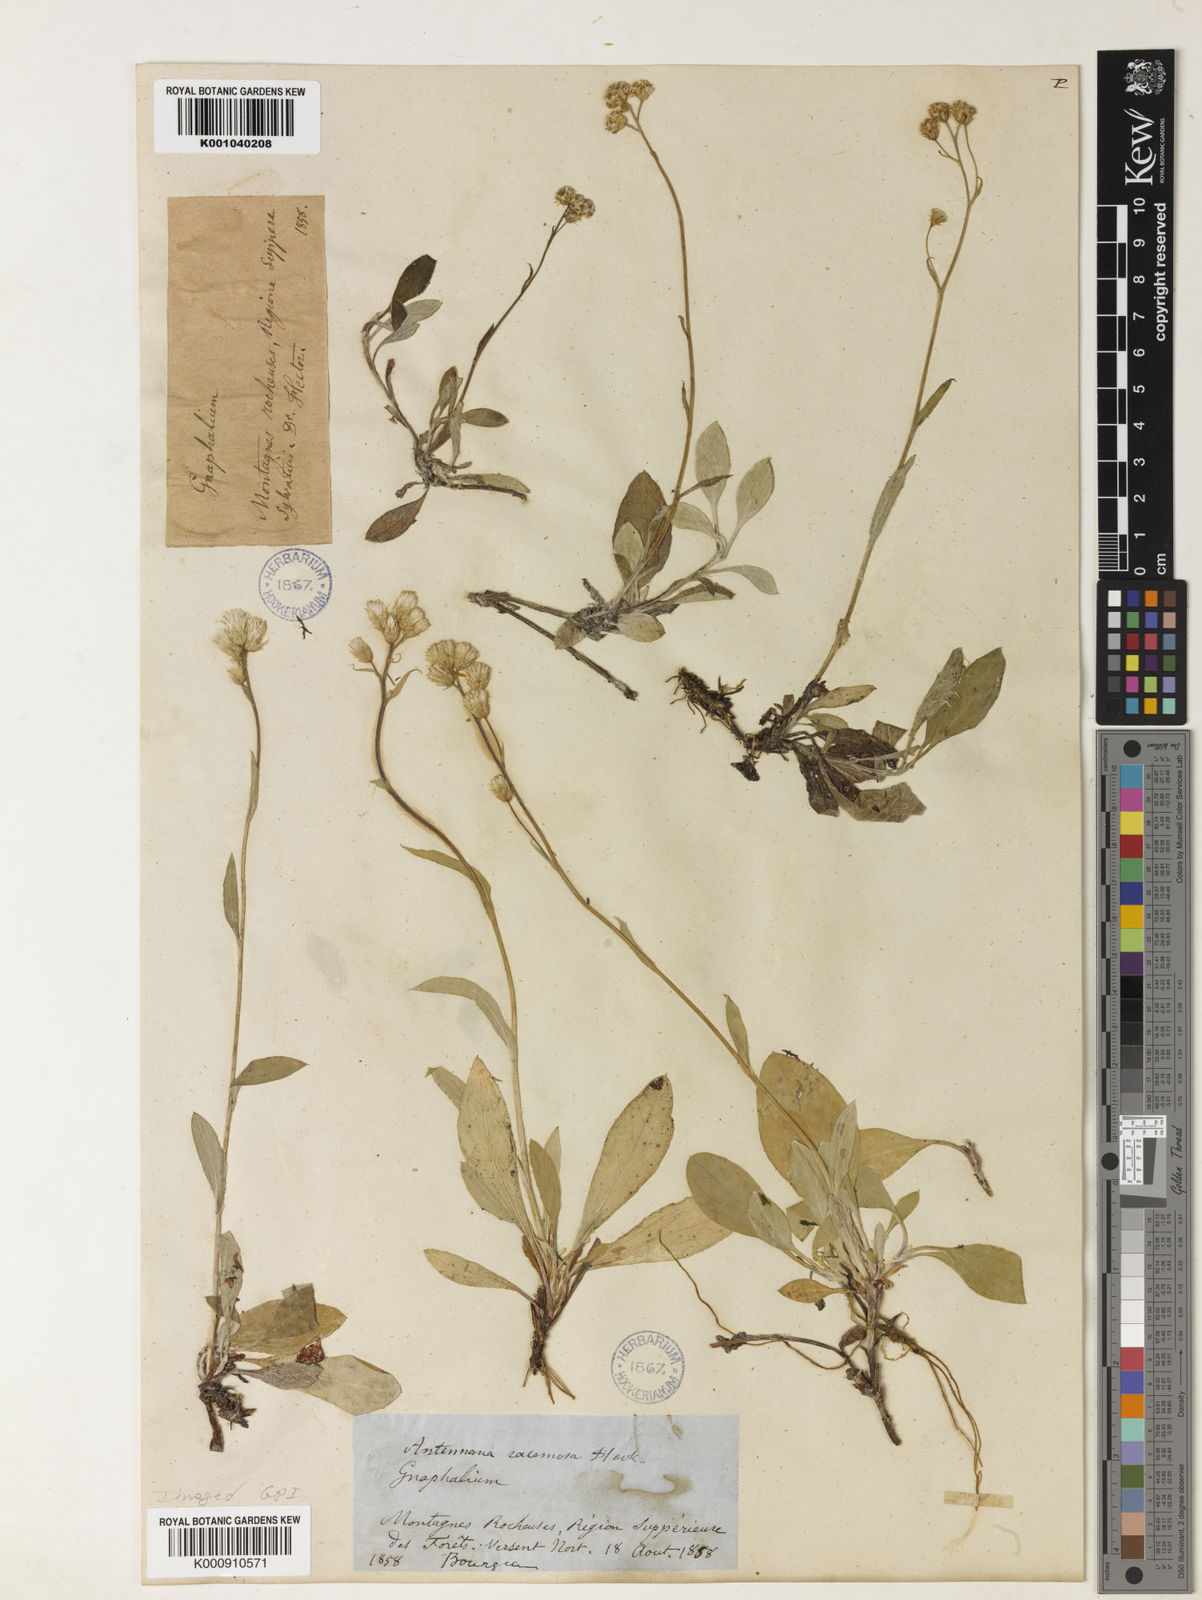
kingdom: Plantae
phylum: Tracheophyta
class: Magnoliopsida
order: Asterales
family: Asteraceae
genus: Antennaria
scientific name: Antennaria racemosa
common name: Racemose pussytoes
